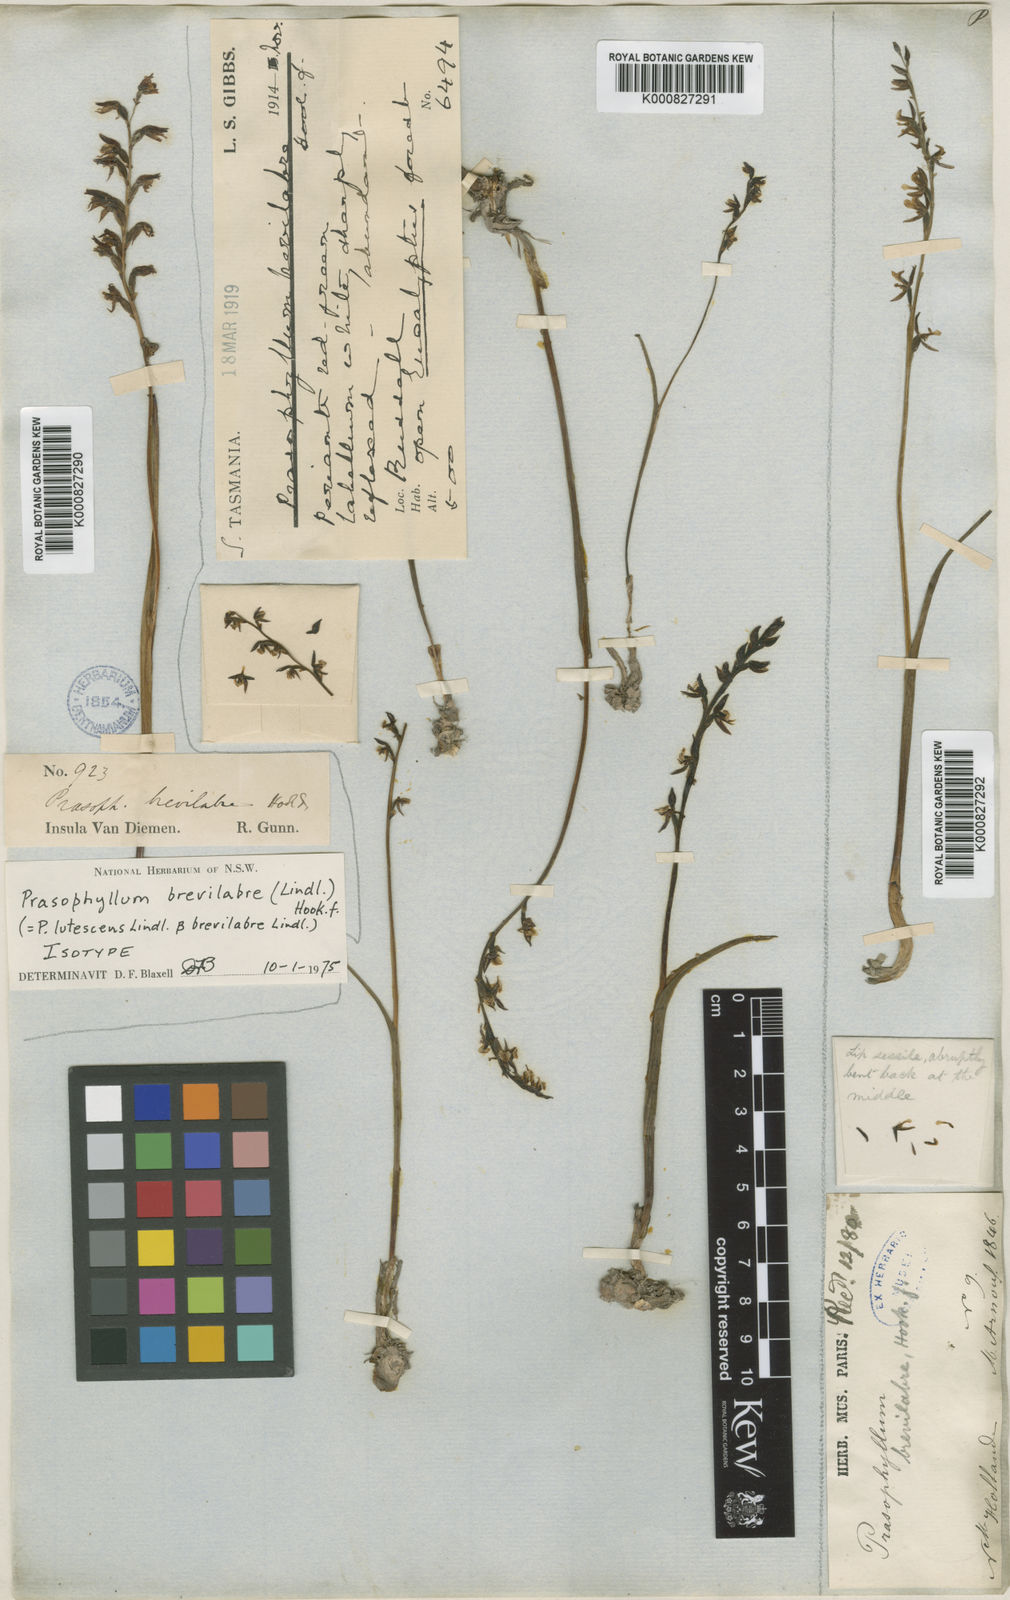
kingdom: Plantae
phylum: Tracheophyta
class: Liliopsida
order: Asparagales
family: Orchidaceae
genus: Prasophyllum
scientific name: Prasophyllum brevilabre
